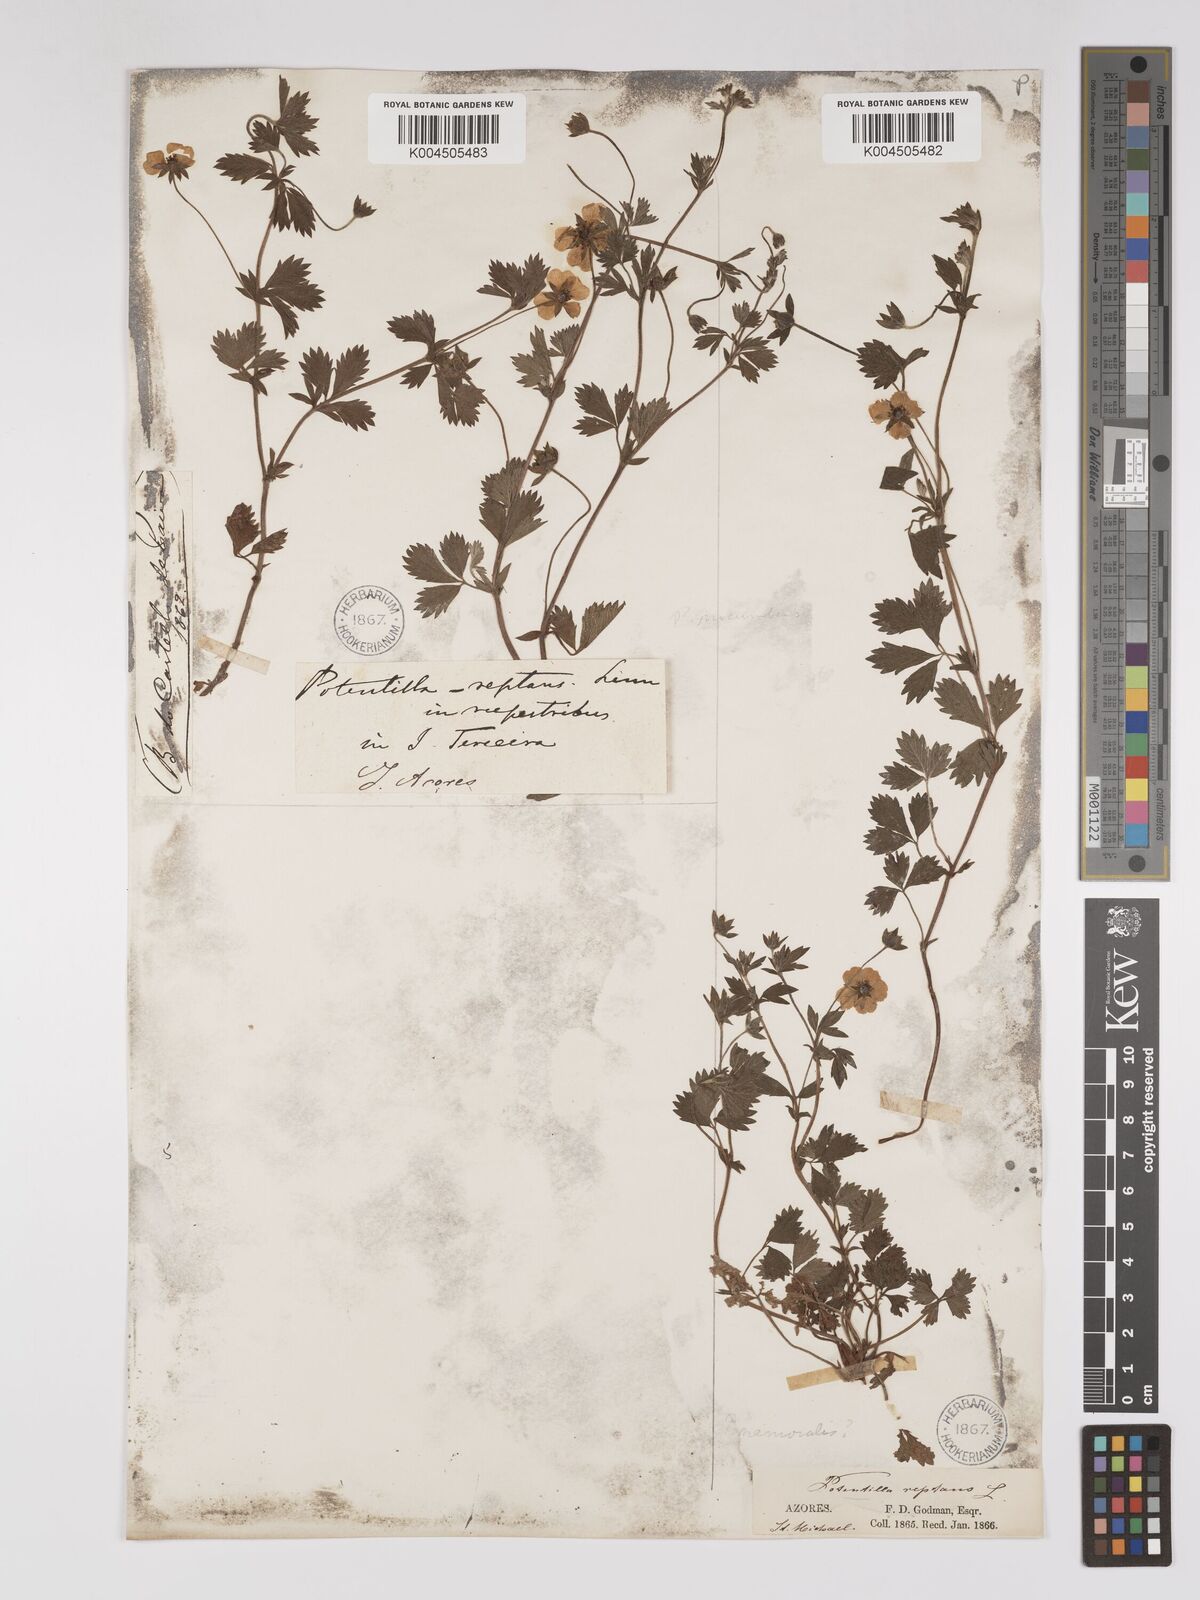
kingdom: Plantae
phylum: Tracheophyta
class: Magnoliopsida
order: Rosales
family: Rosaceae
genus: Potentilla
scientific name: Potentilla
